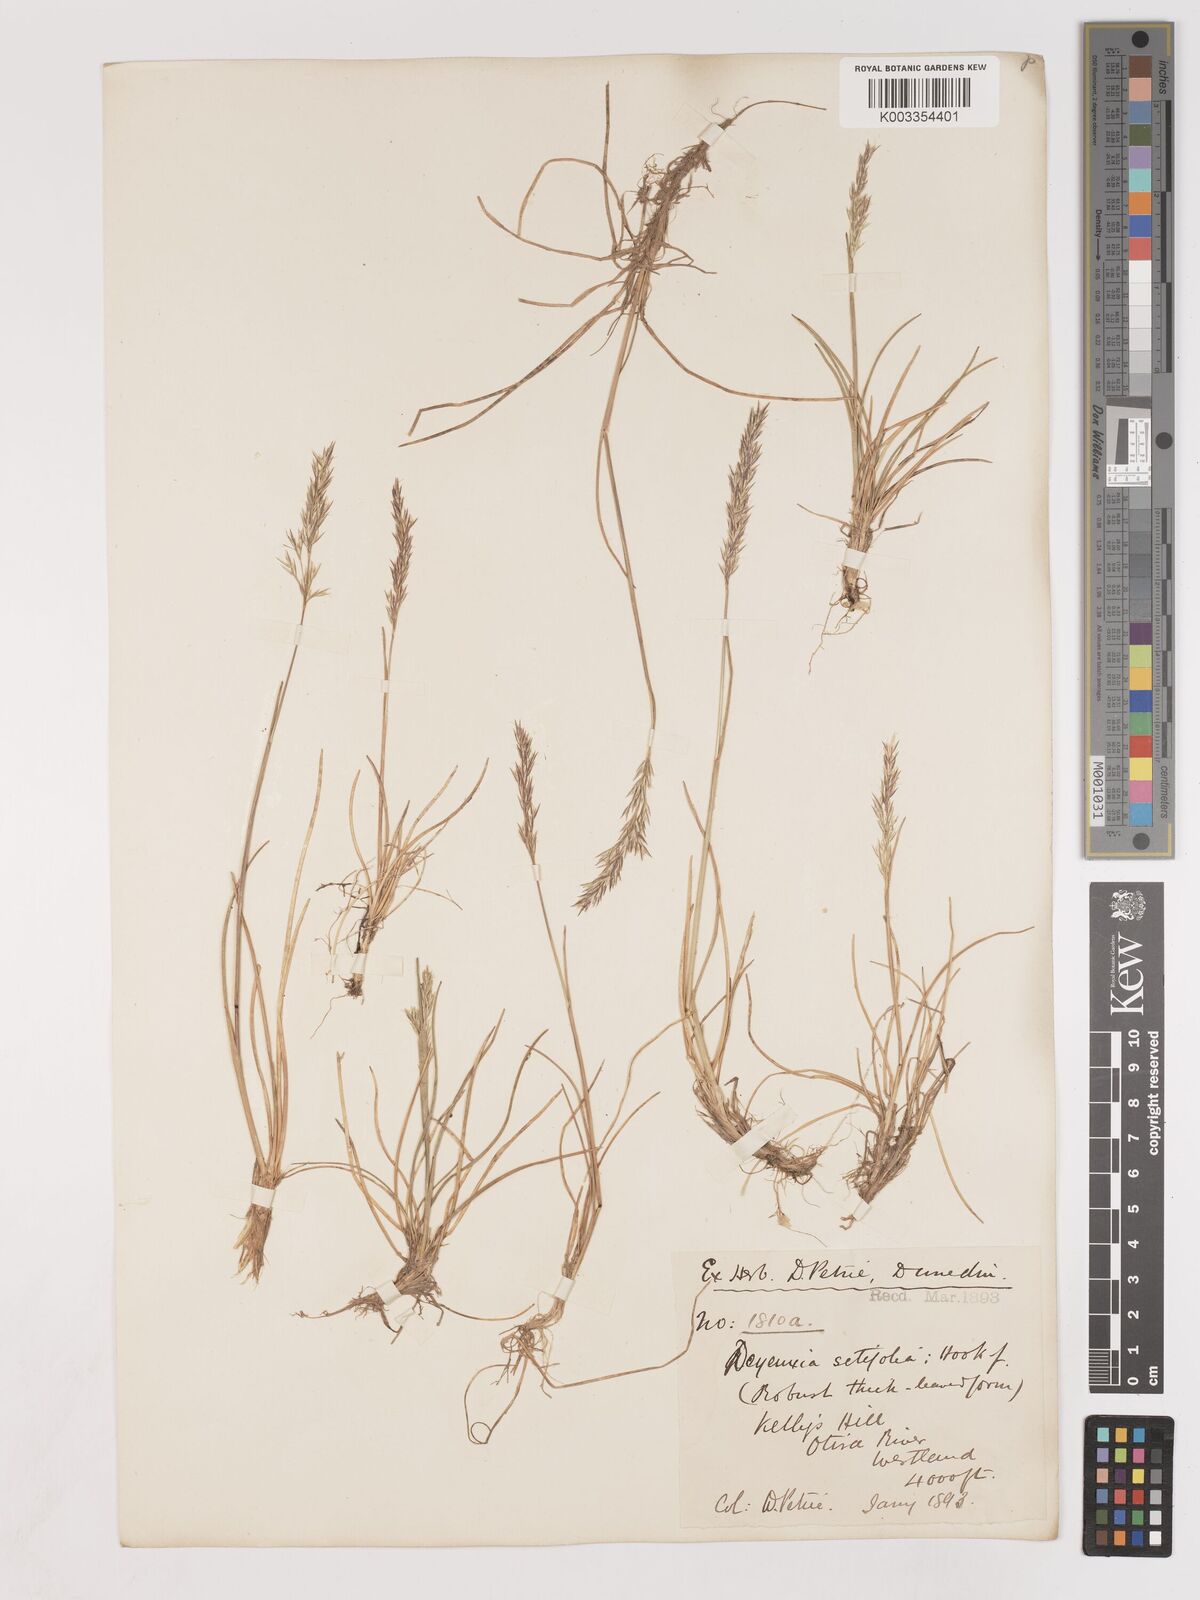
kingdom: Plantae
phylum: Tracheophyta
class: Liliopsida
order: Poales
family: Poaceae
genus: Agrostis
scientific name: Agrostis aucklandica
